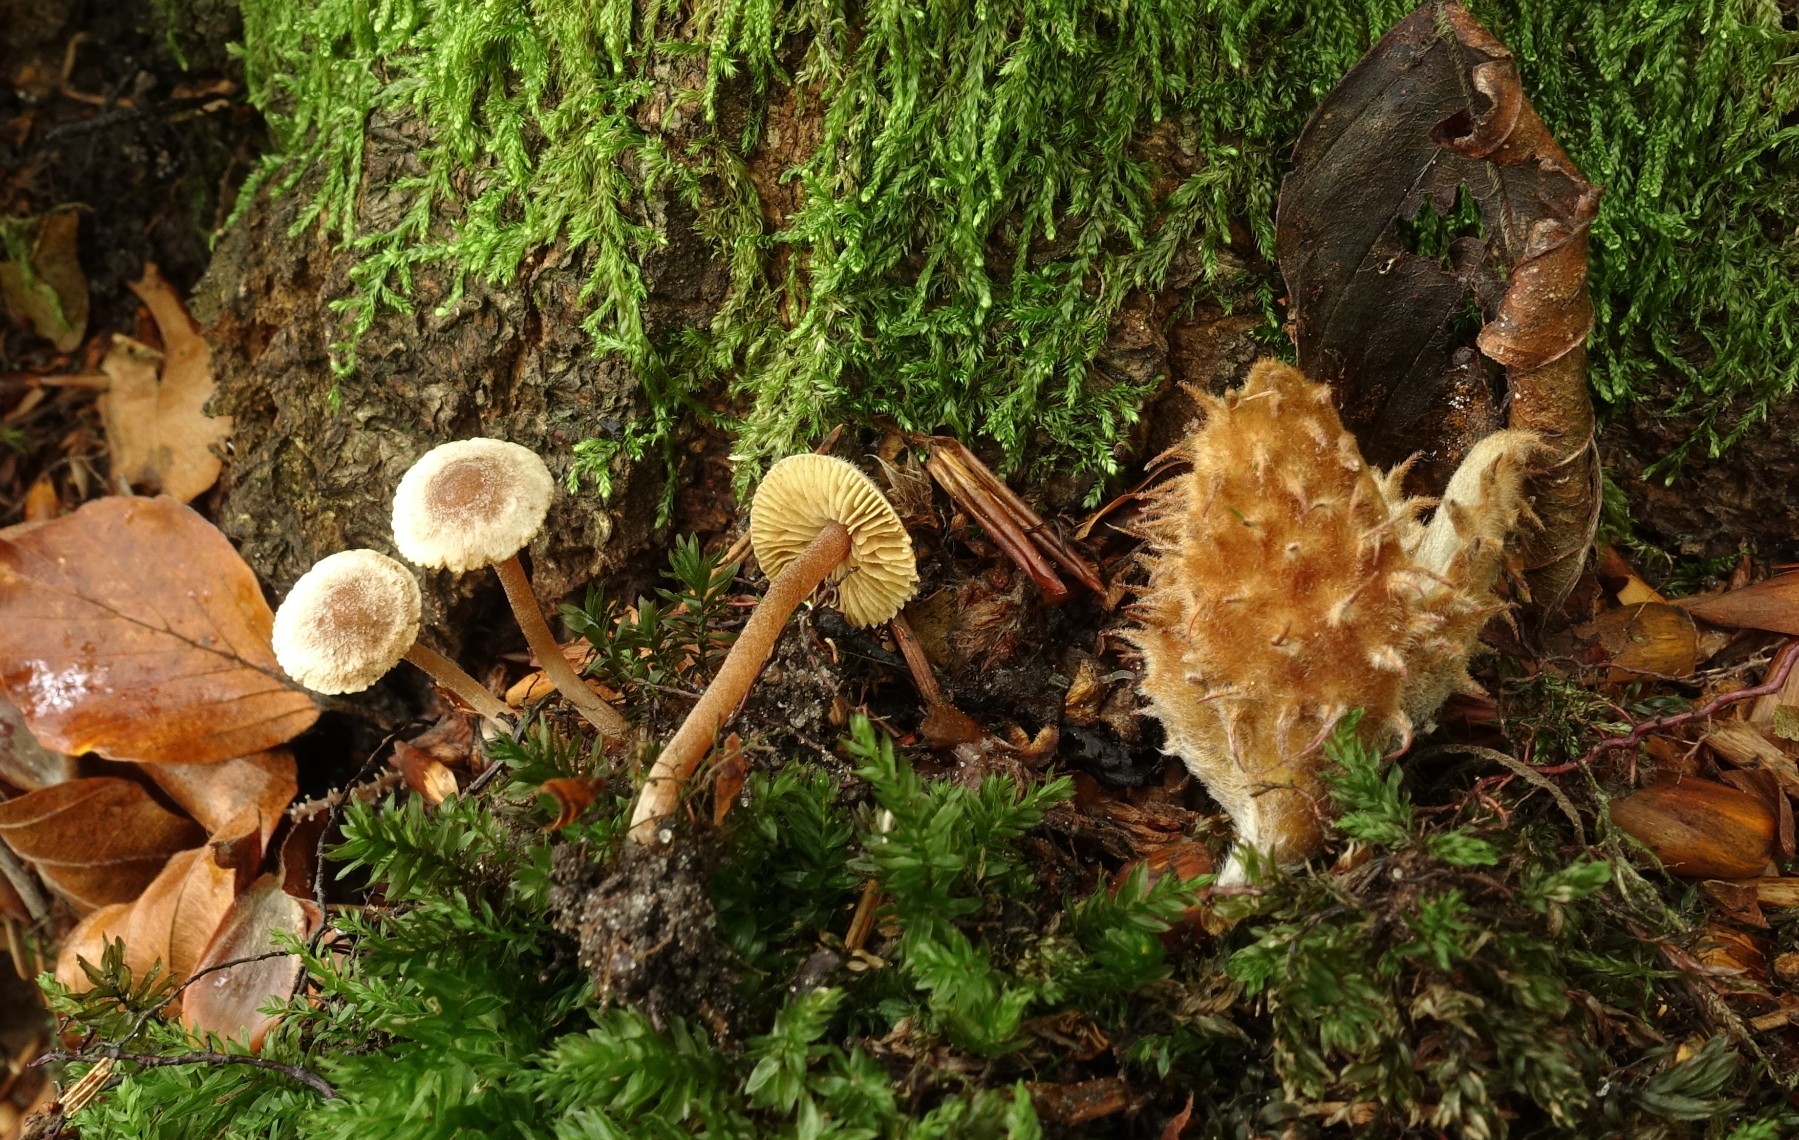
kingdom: Fungi
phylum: Basidiomycota
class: Agaricomycetes
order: Agaricales
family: Inocybaceae
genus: Inocybe
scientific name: Inocybe petiginosa
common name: liden trævlhat
